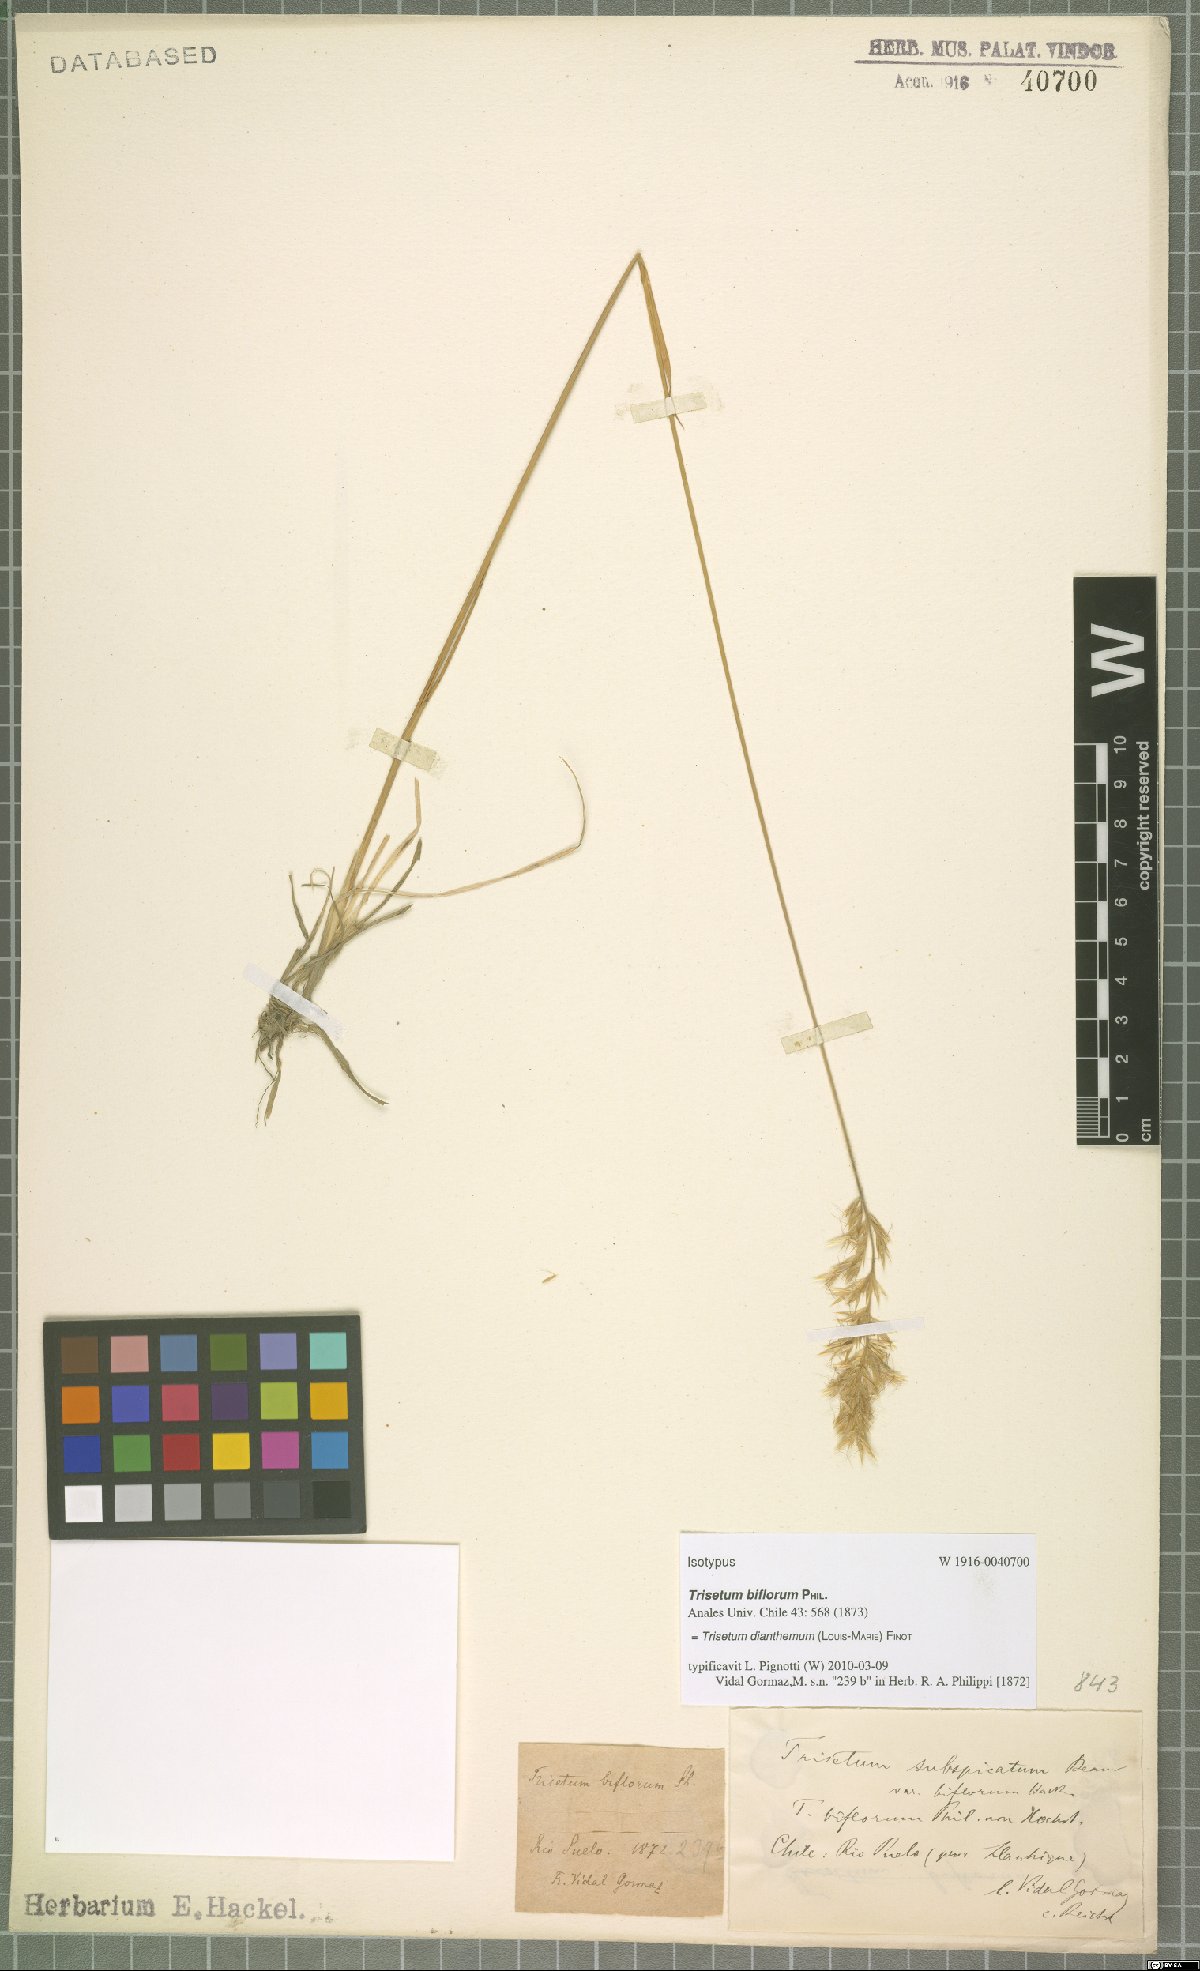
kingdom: Plantae
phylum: Tracheophyta
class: Liliopsida
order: Poales
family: Poaceae
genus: Koeleria
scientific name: Koeleria spicata
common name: Mountain trisetum
